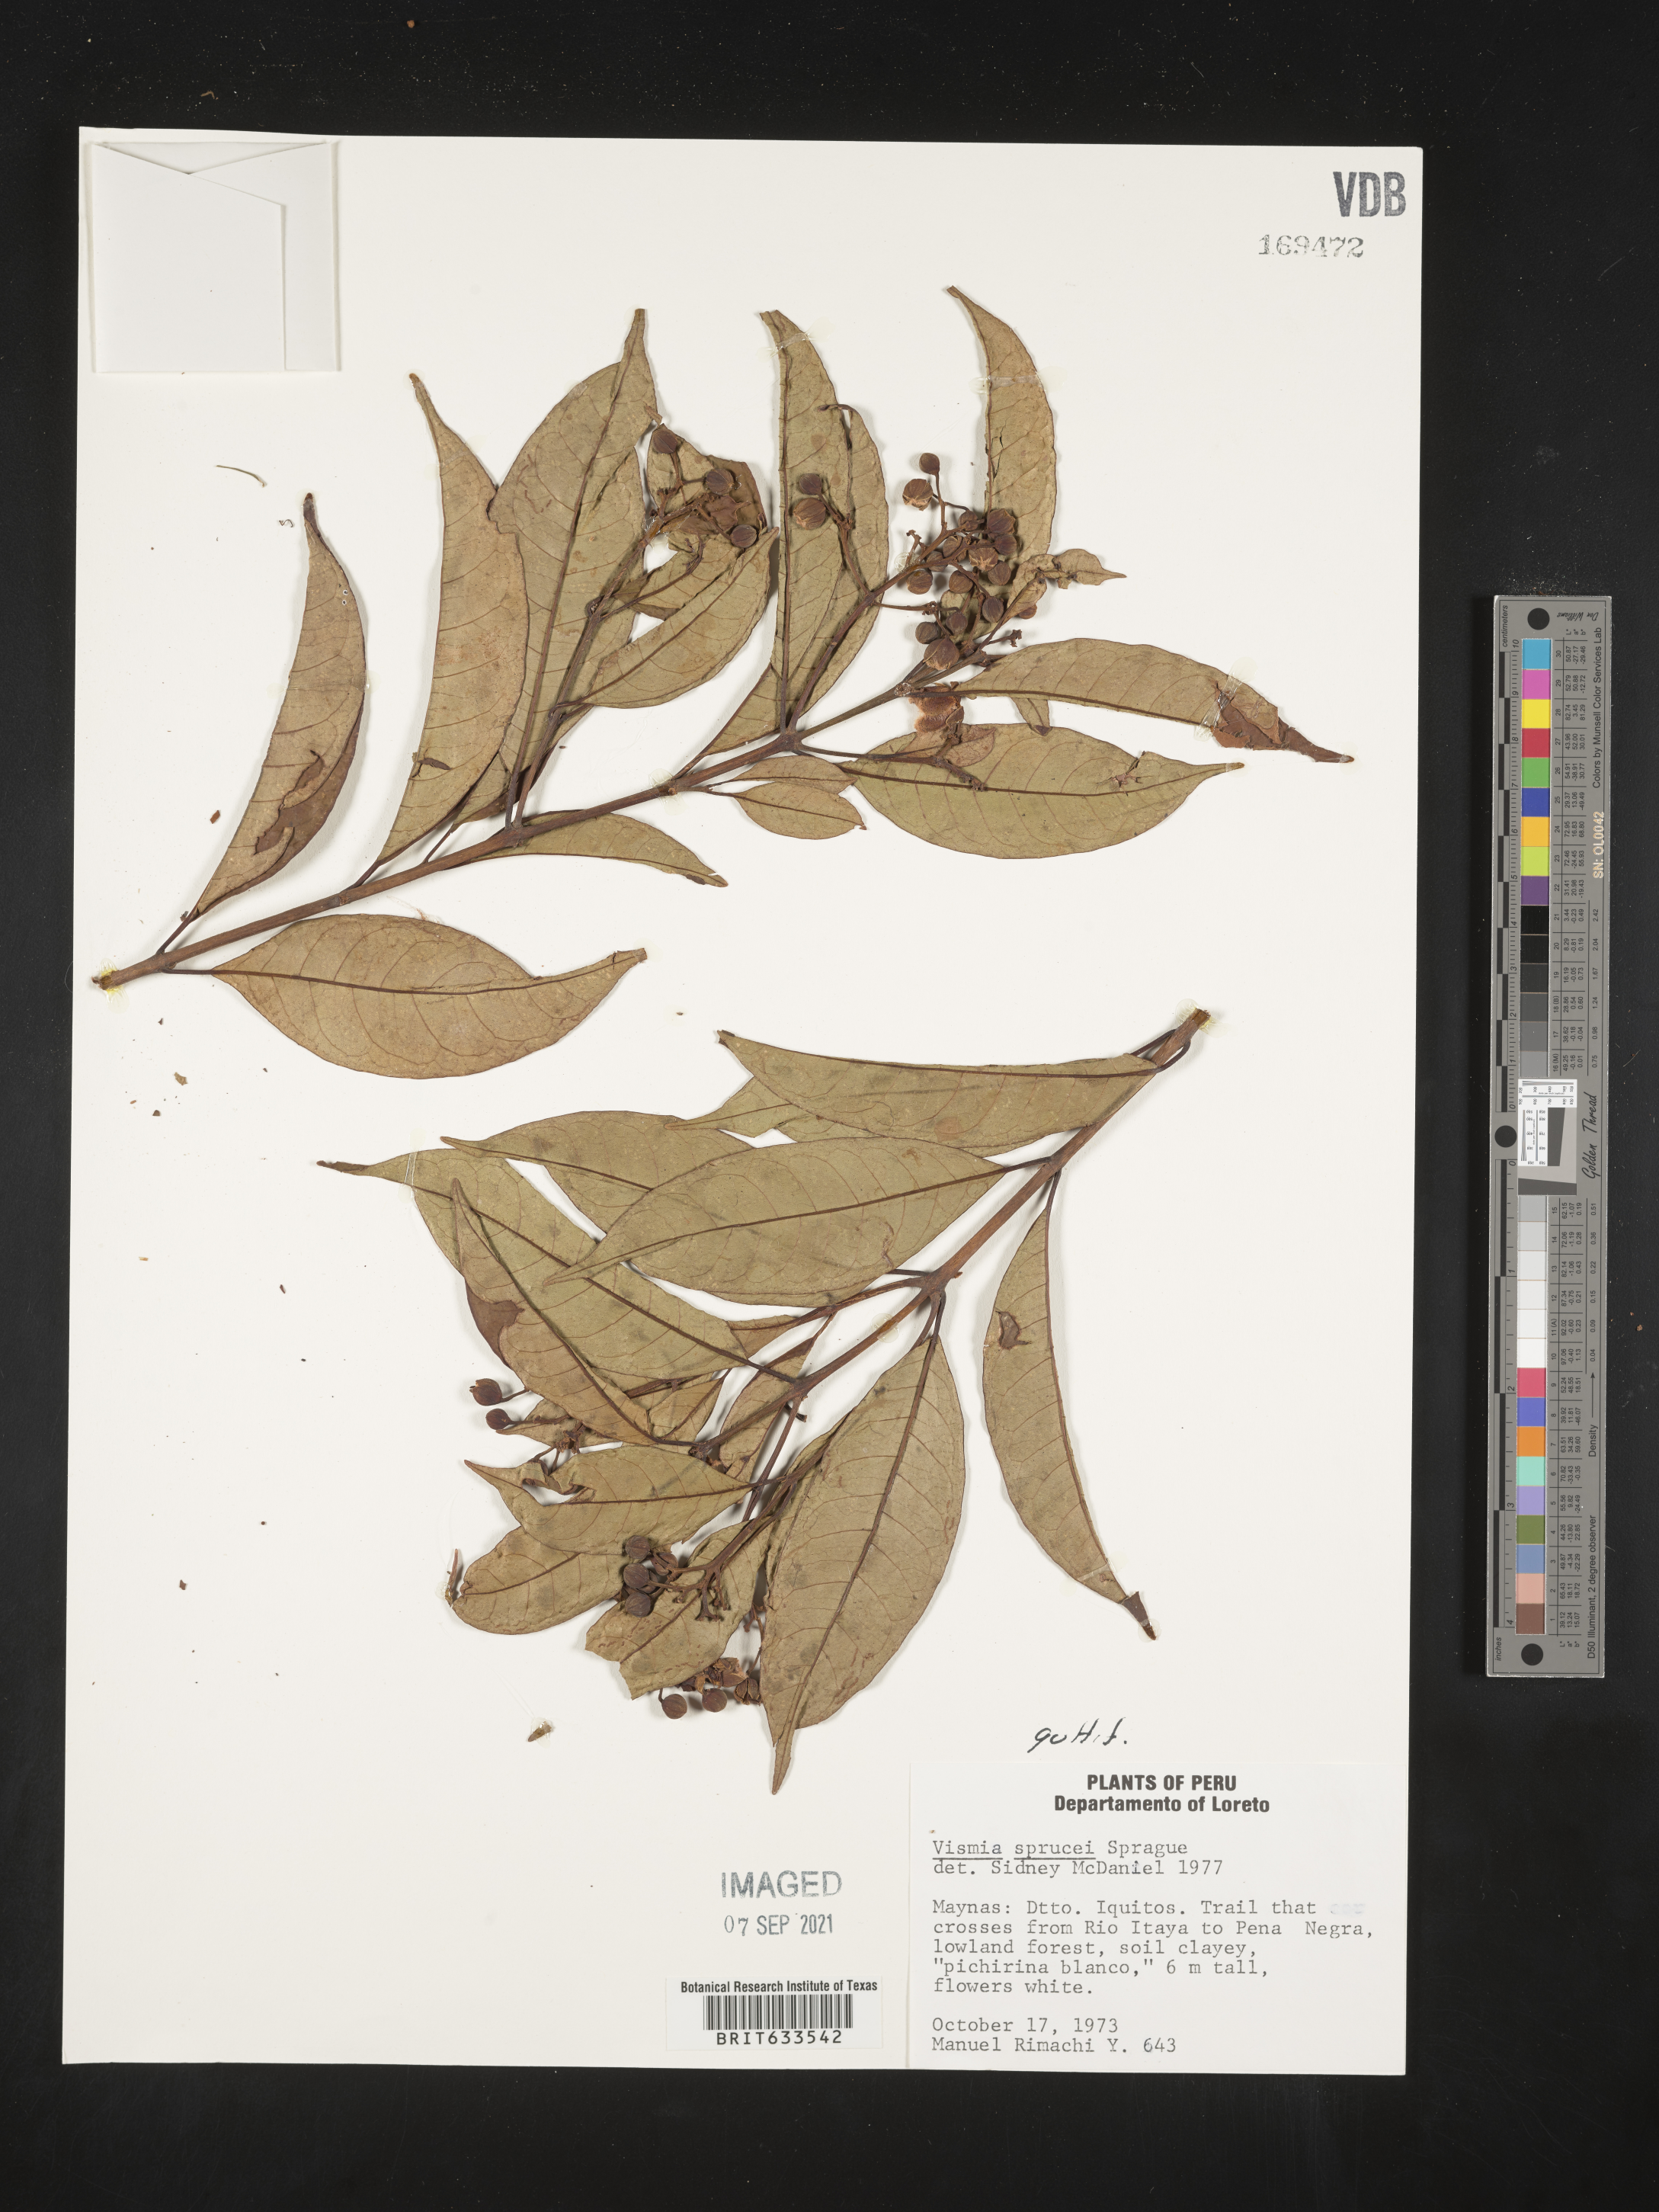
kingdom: Plantae
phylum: Tracheophyta
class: Magnoliopsida
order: Malpighiales
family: Hypericaceae
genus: Vismia
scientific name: Vismia
